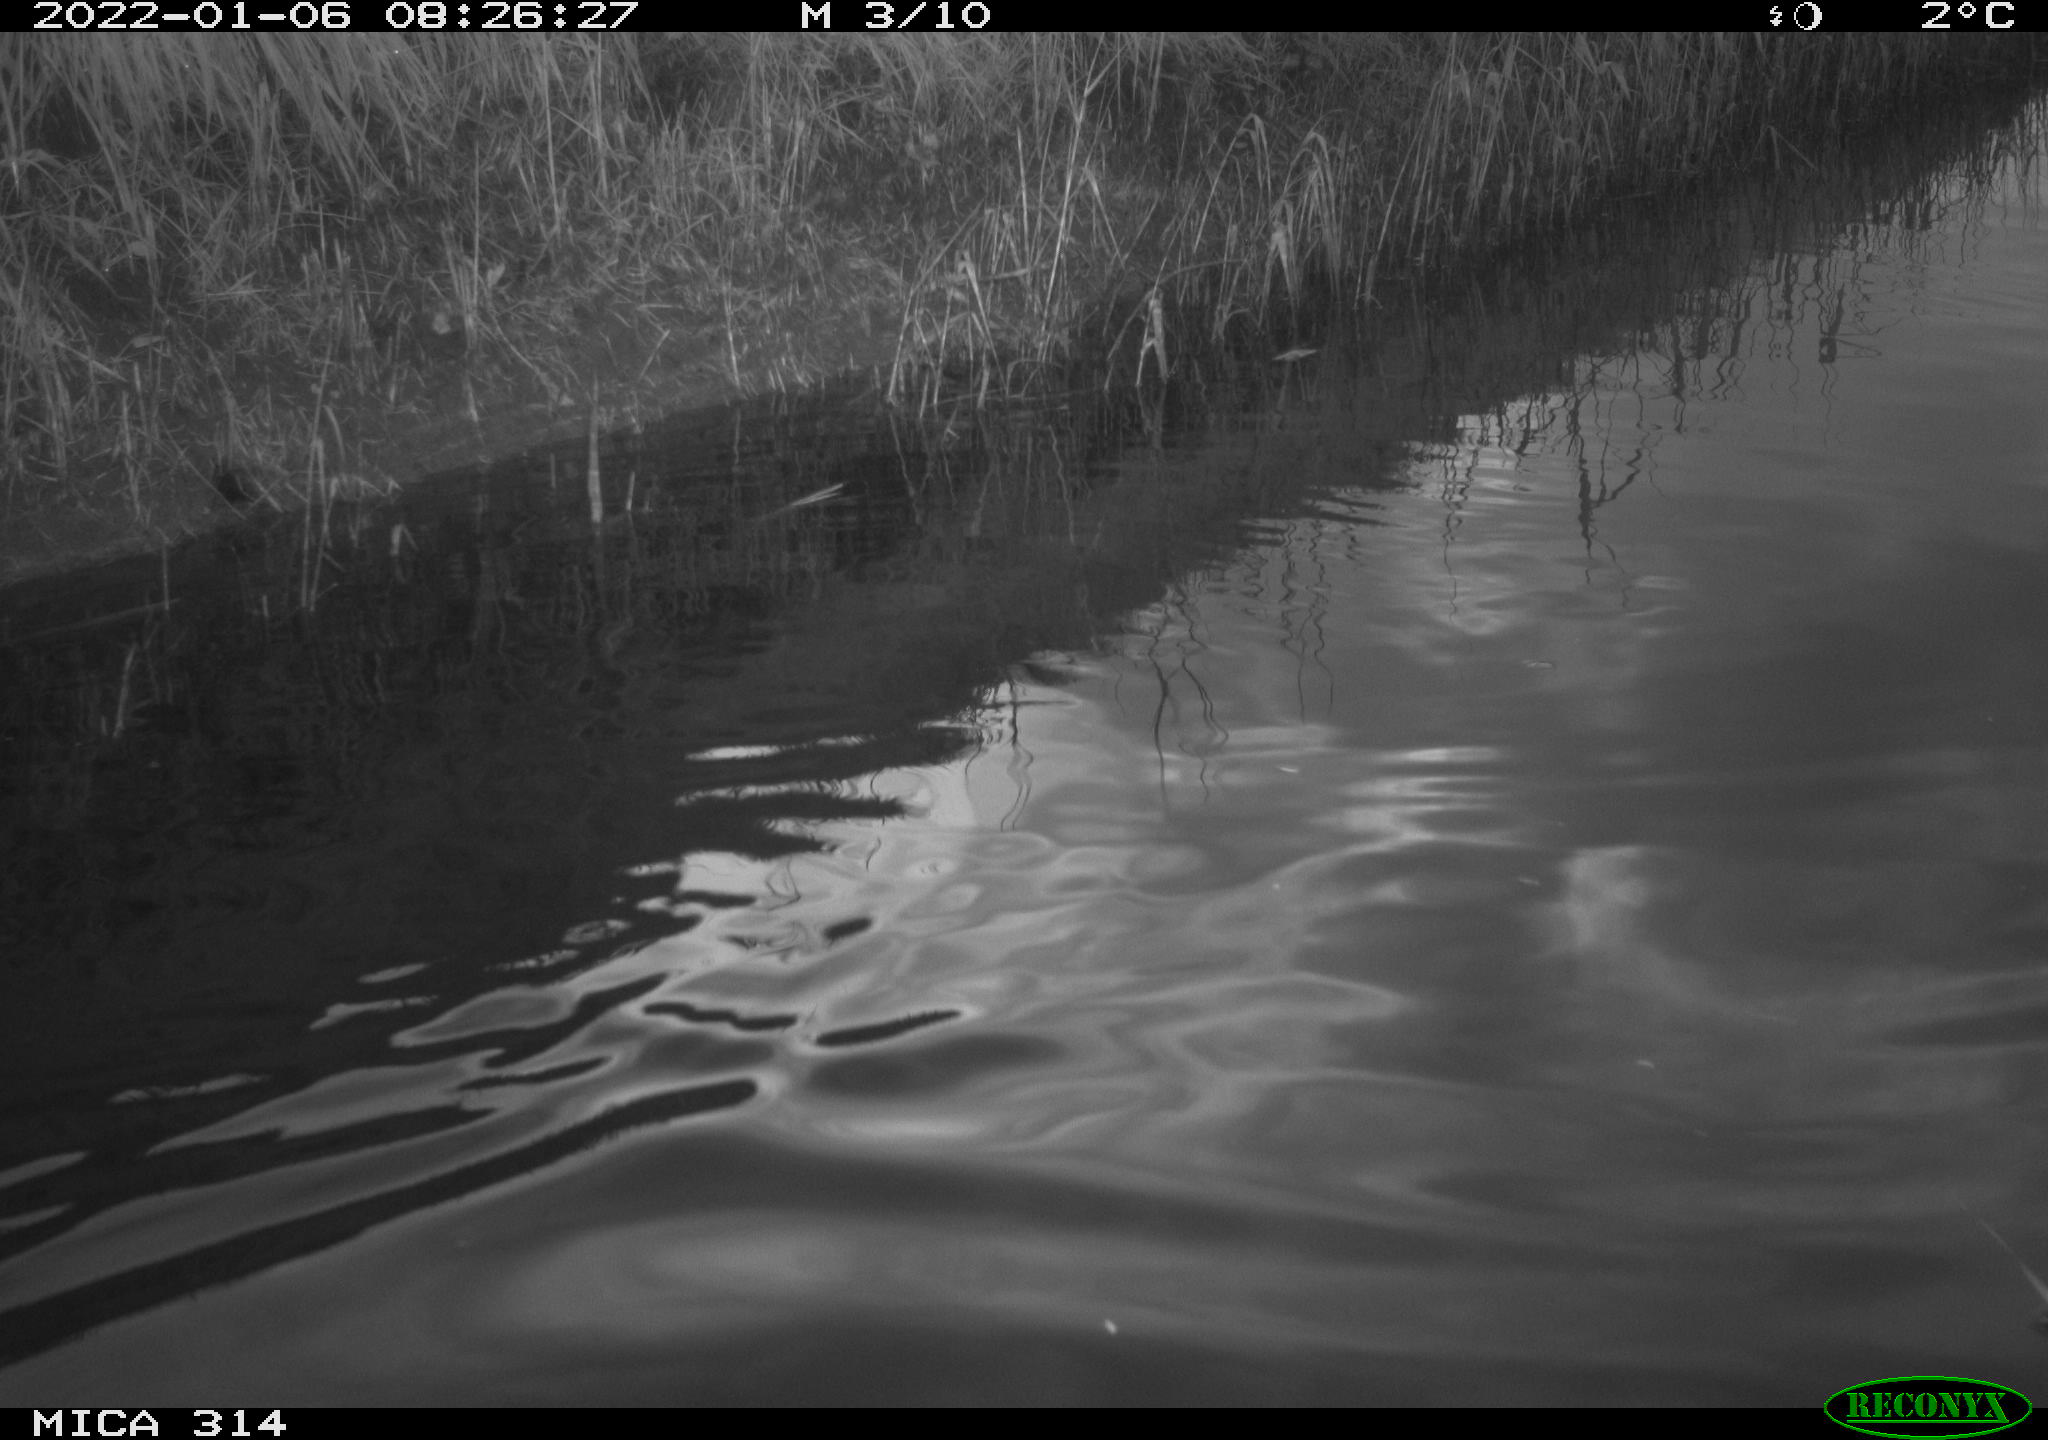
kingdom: Animalia
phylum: Chordata
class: Aves
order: Gruiformes
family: Rallidae
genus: Gallinula
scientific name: Gallinula chloropus
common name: Common moorhen
